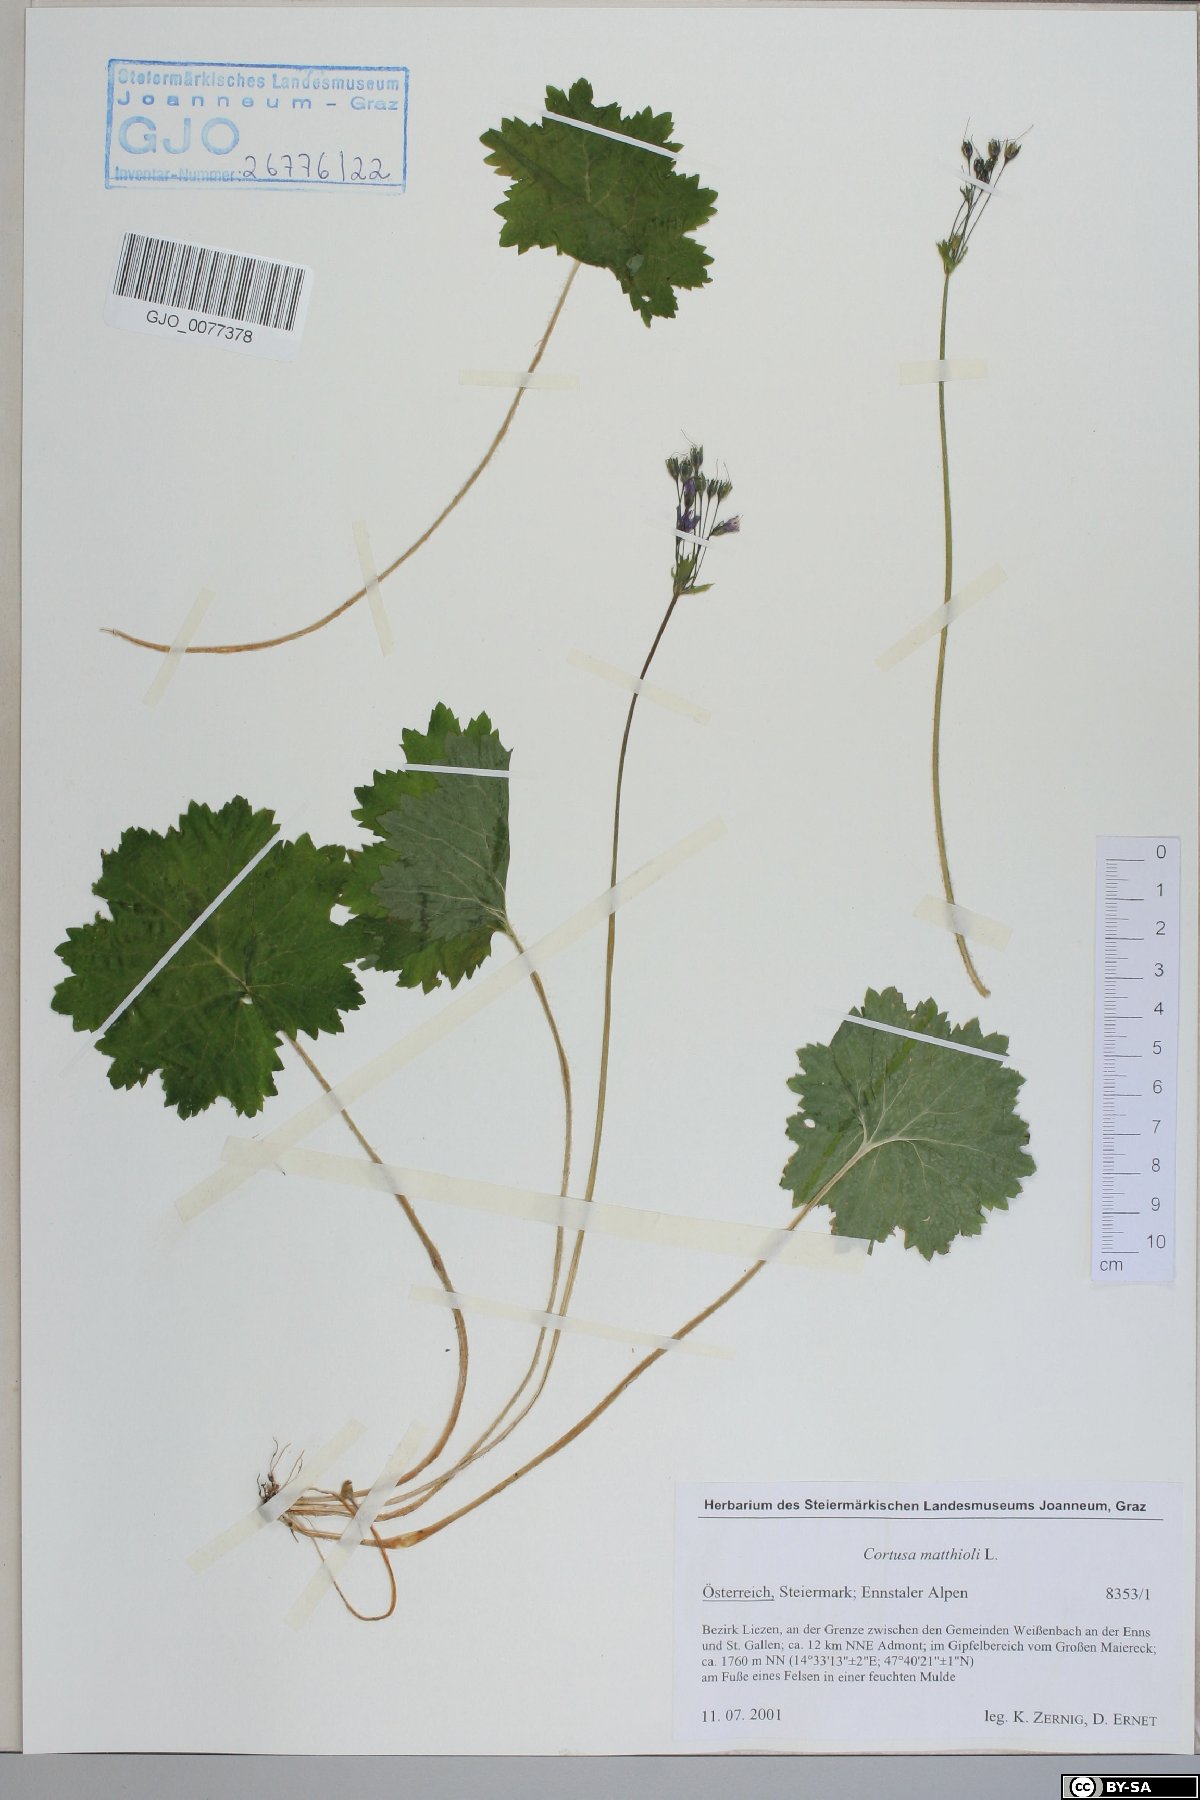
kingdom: Plantae
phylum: Tracheophyta
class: Magnoliopsida
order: Ericales
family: Primulaceae
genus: Primula
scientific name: Primula matthioli
